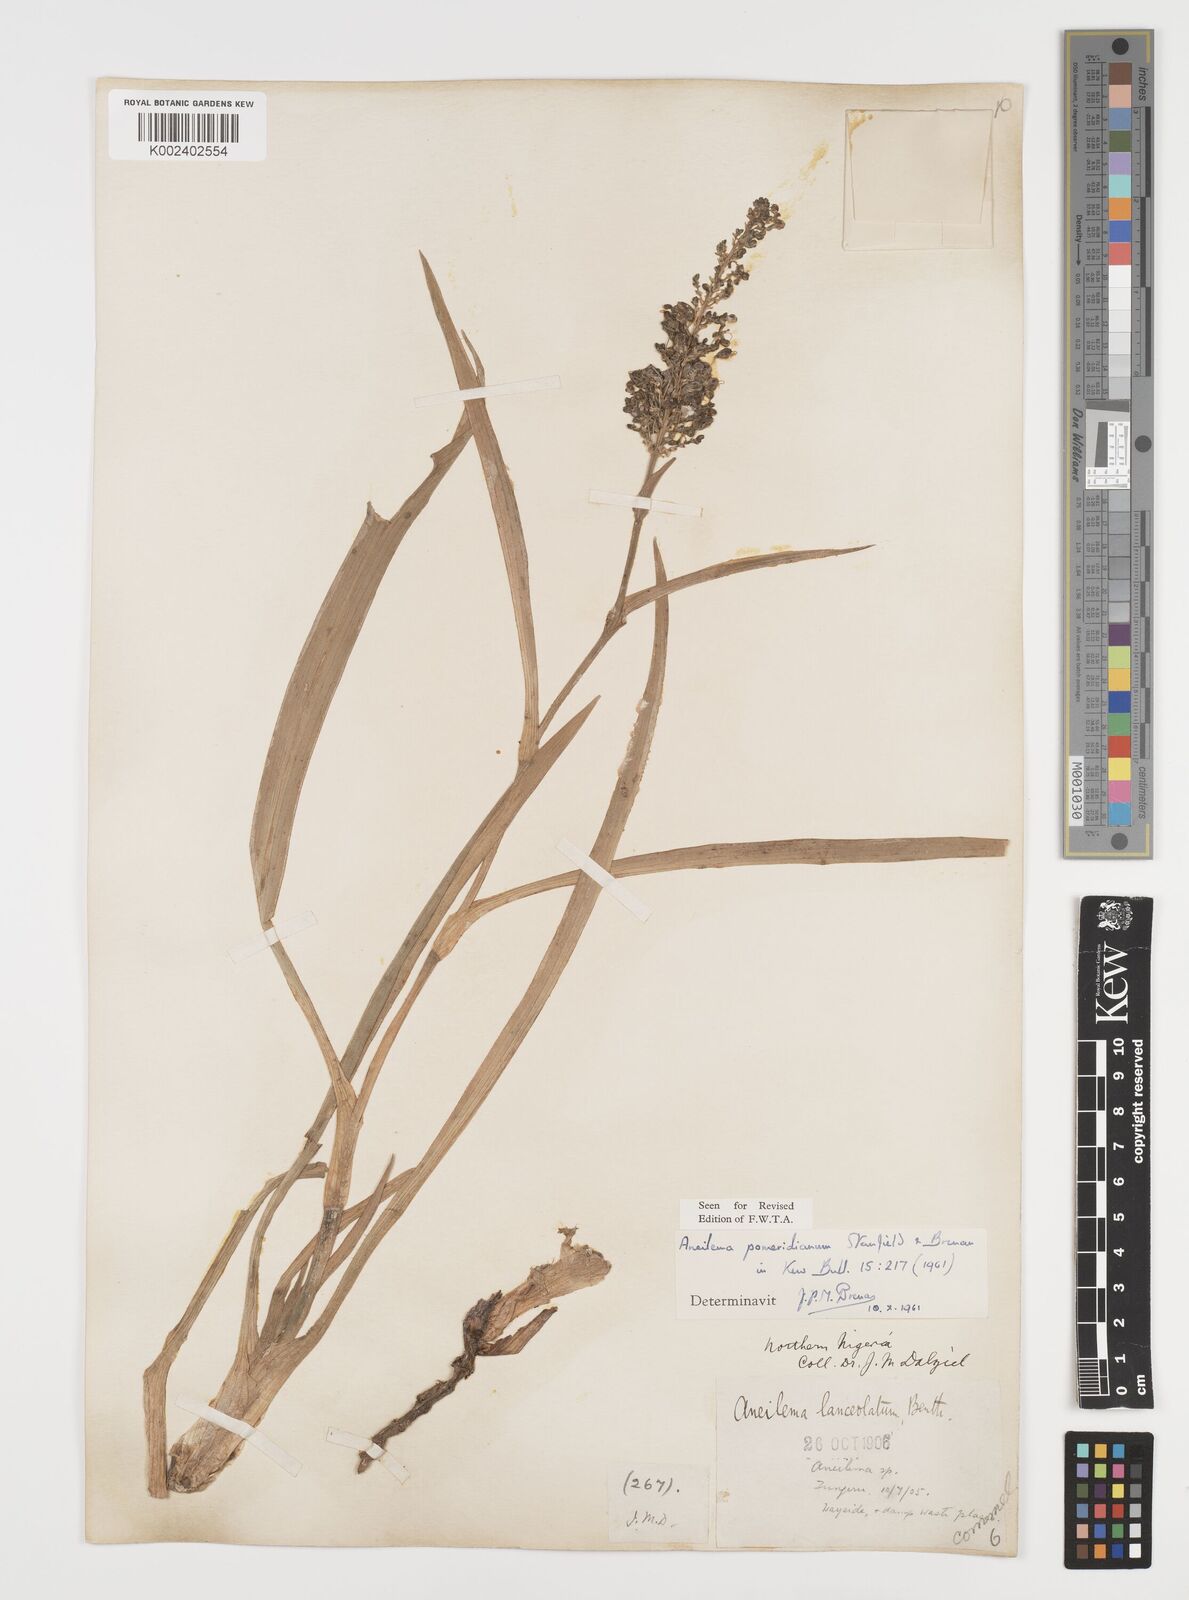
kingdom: Plantae
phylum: Tracheophyta
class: Liliopsida
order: Commelinales
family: Commelinaceae
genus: Aneilema
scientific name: Aneilema pomeridianum
